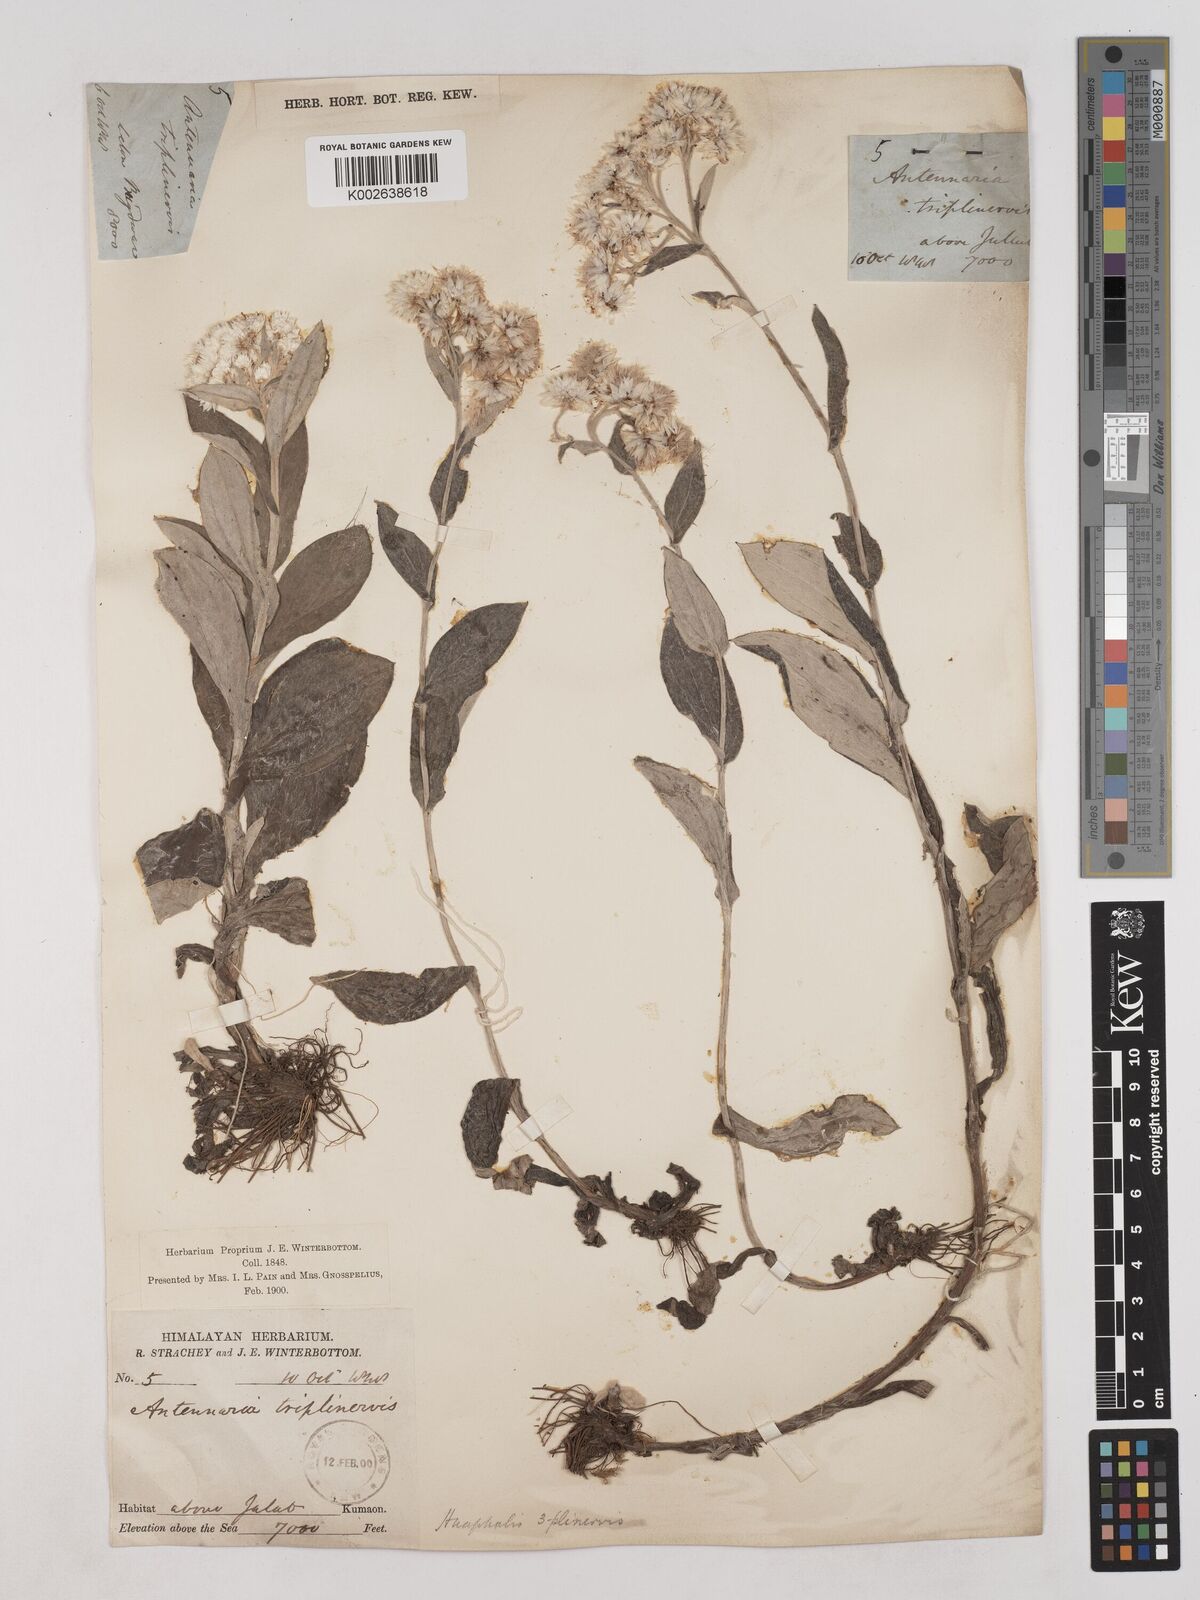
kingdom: Plantae
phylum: Tracheophyta
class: Magnoliopsida
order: Asterales
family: Asteraceae
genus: Anaphalis
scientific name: Anaphalis triplinervis
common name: Pearly everlasting
